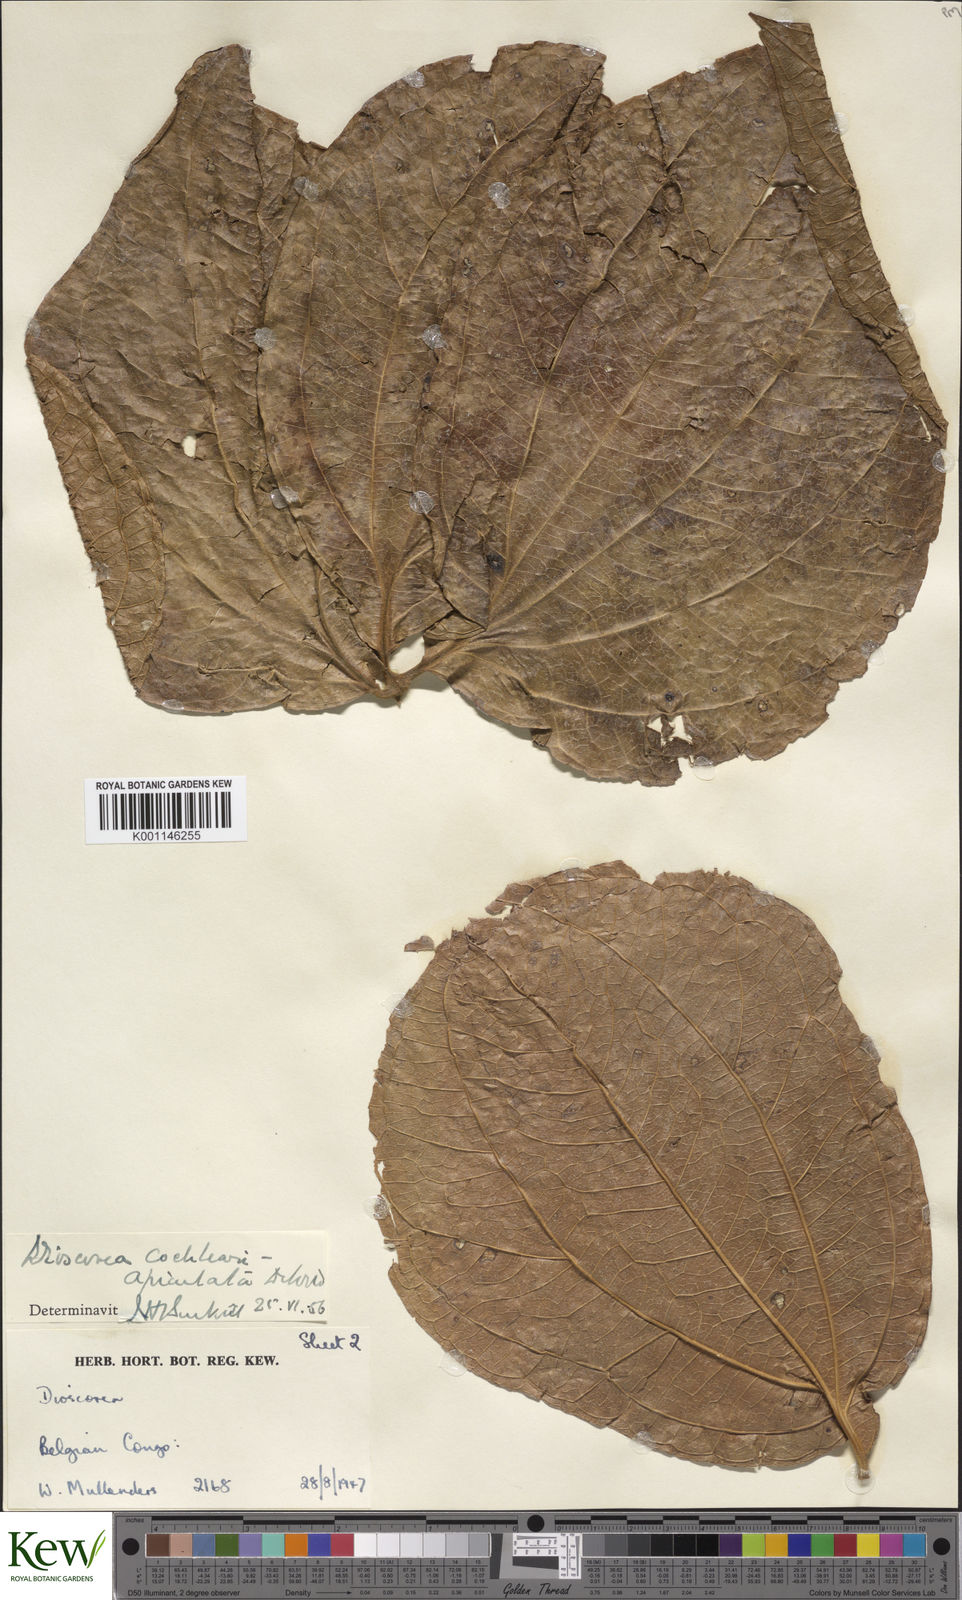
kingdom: Plantae
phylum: Tracheophyta
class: Liliopsida
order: Dioscoreales
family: Dioscoreaceae
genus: Dioscorea
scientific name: Dioscorea cochleariapiculata
